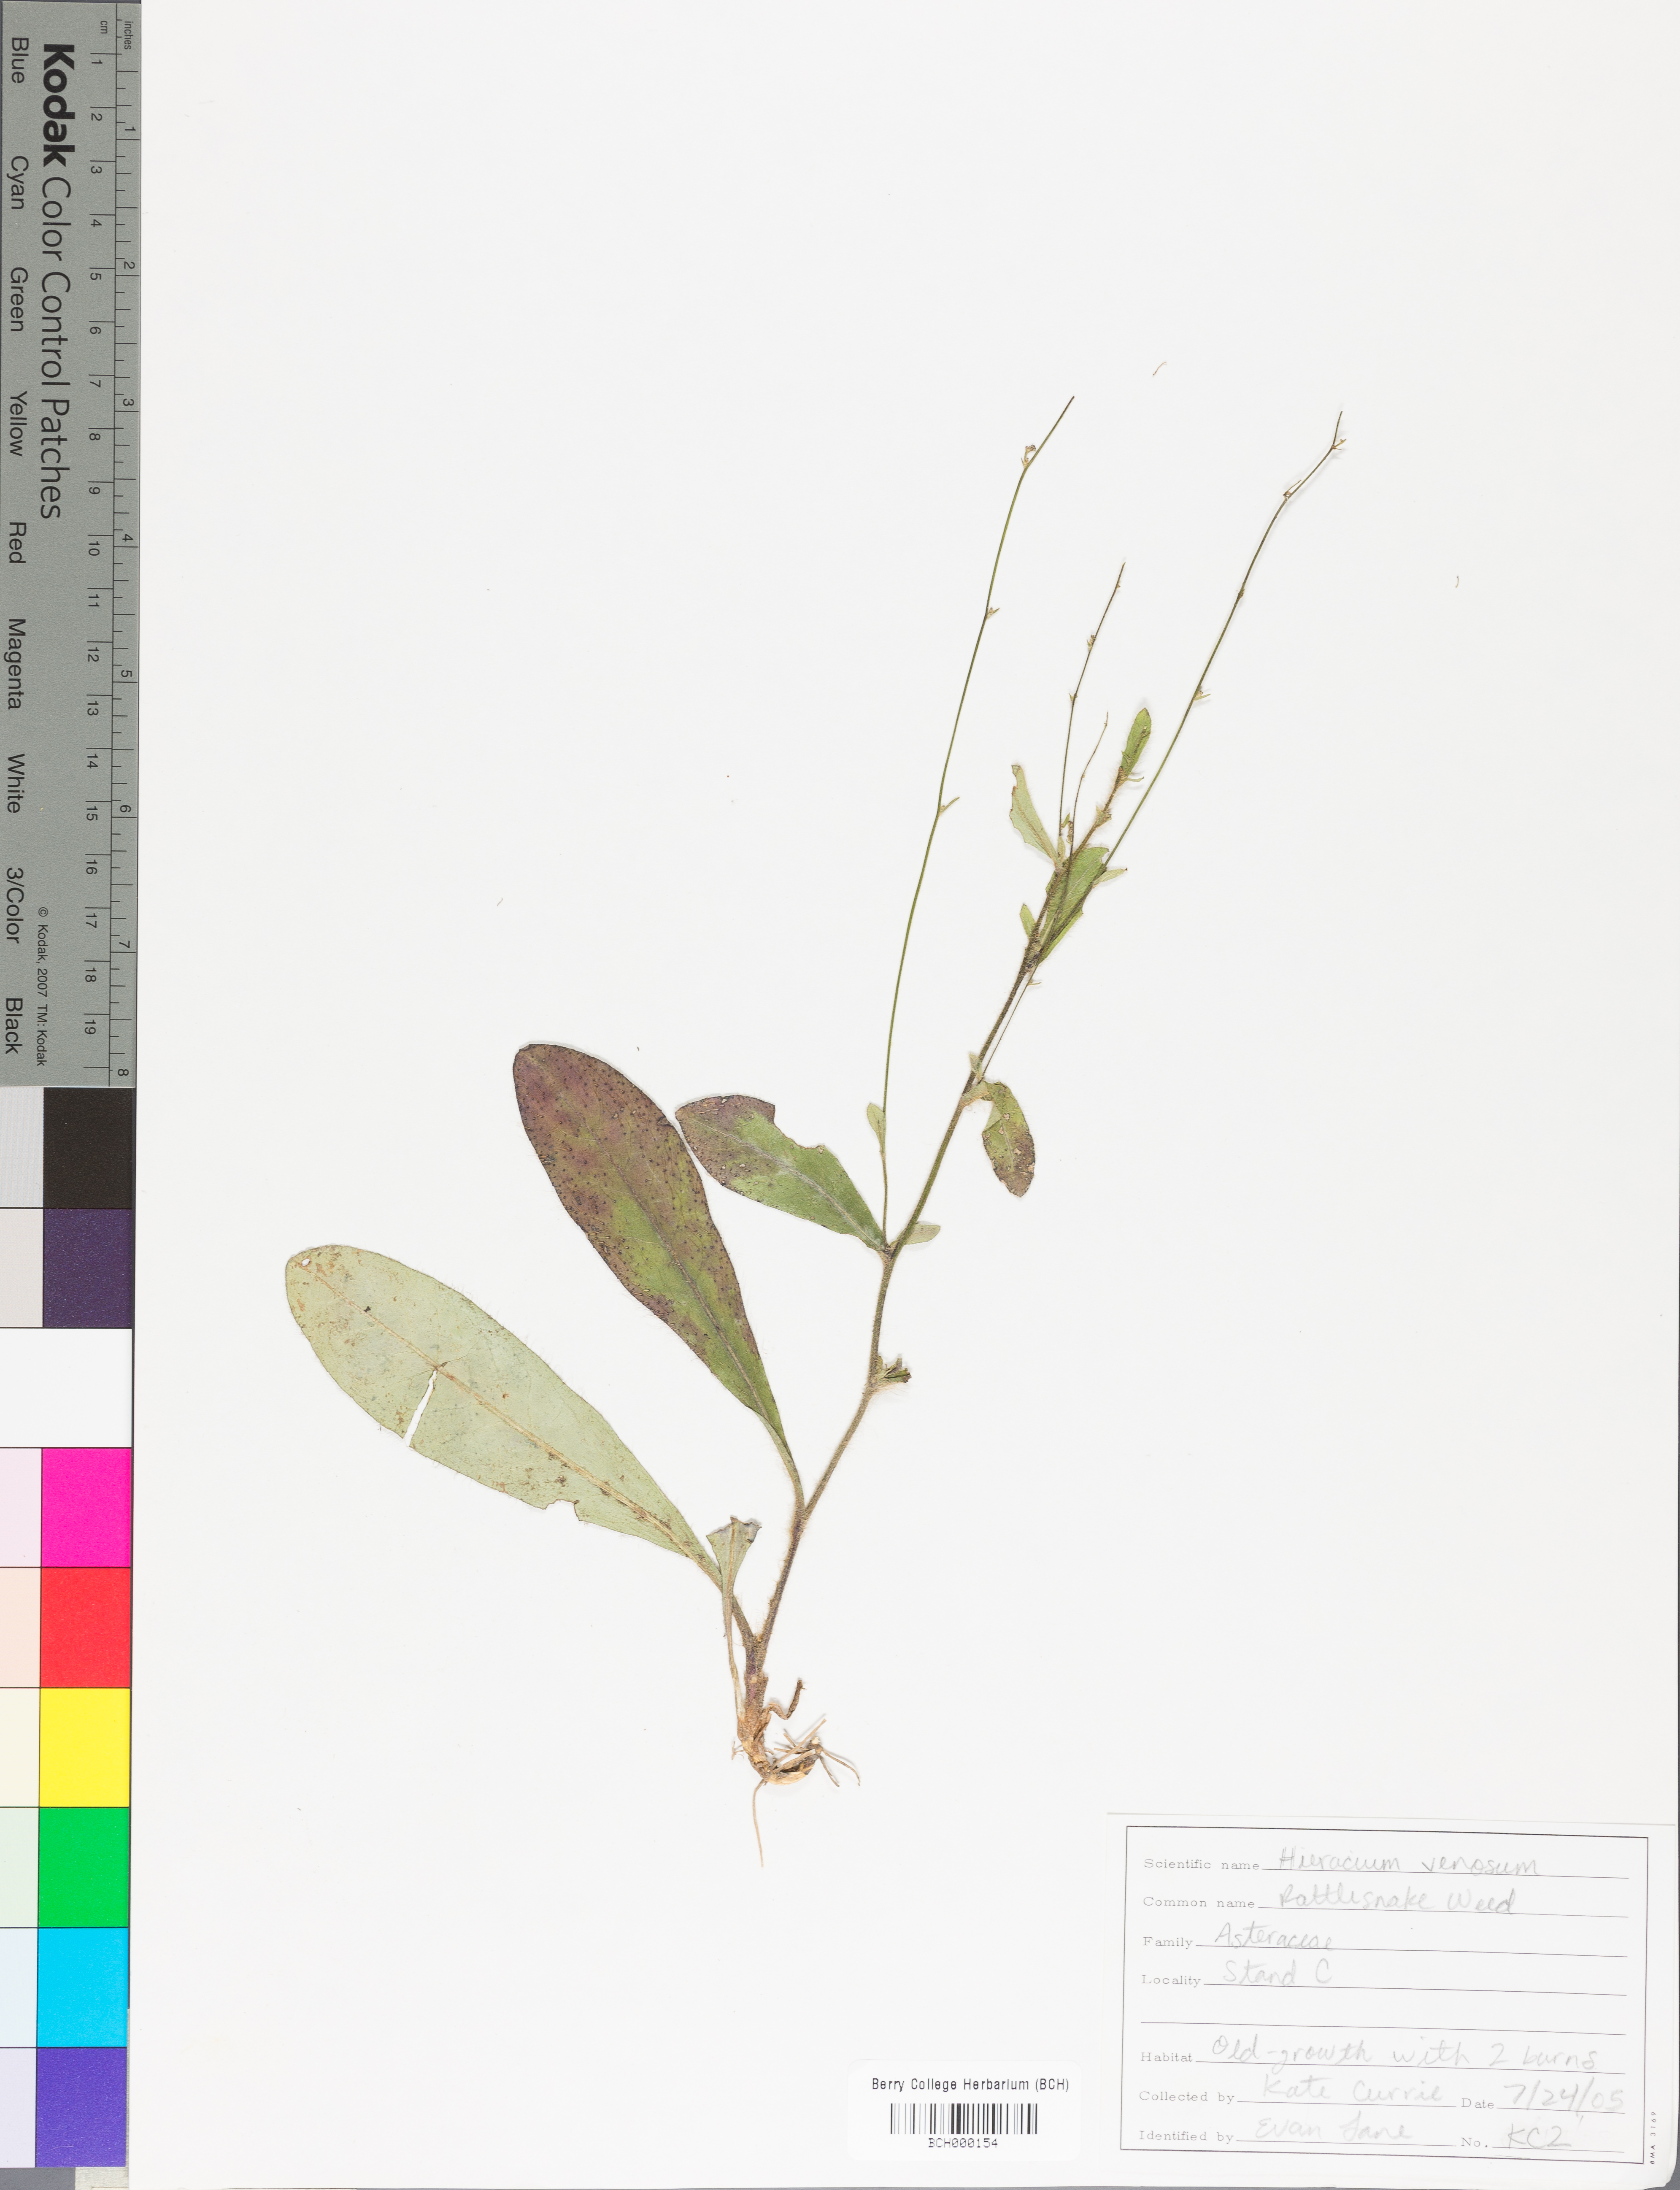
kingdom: Plantae
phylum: Tracheophyta
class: Magnoliopsida
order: Asterales
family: Asteraceae
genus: Hieracium
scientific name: Hieracium venosum
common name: Rattlesnake hawkweed
